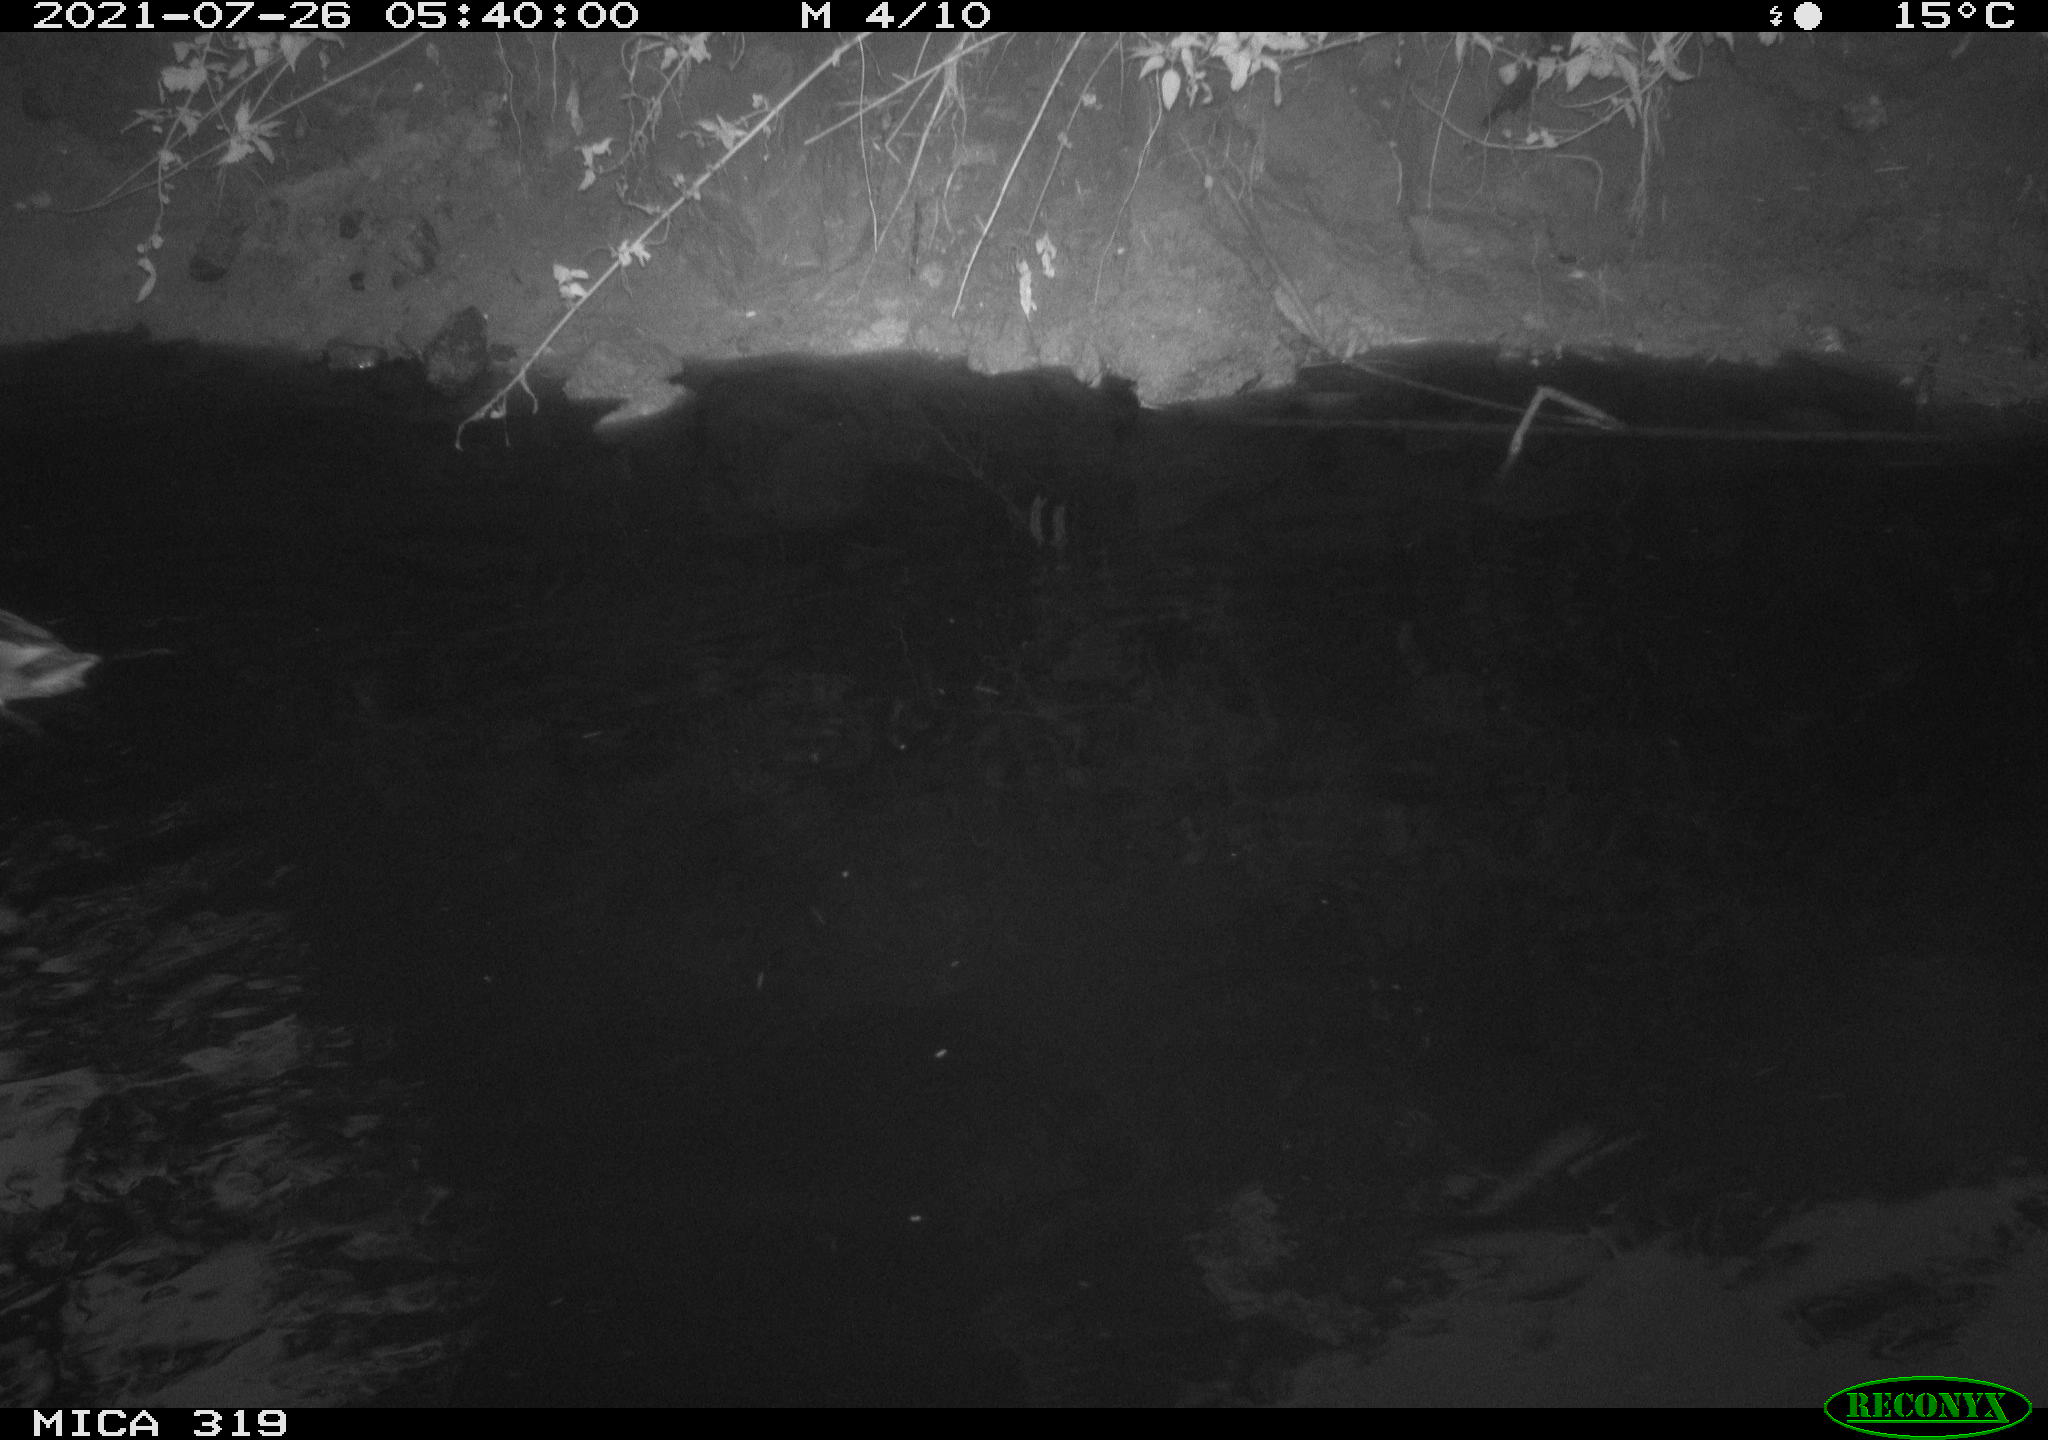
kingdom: Animalia
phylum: Chordata
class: Aves
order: Anseriformes
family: Anatidae
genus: Anas
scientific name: Anas platyrhynchos
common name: Mallard
